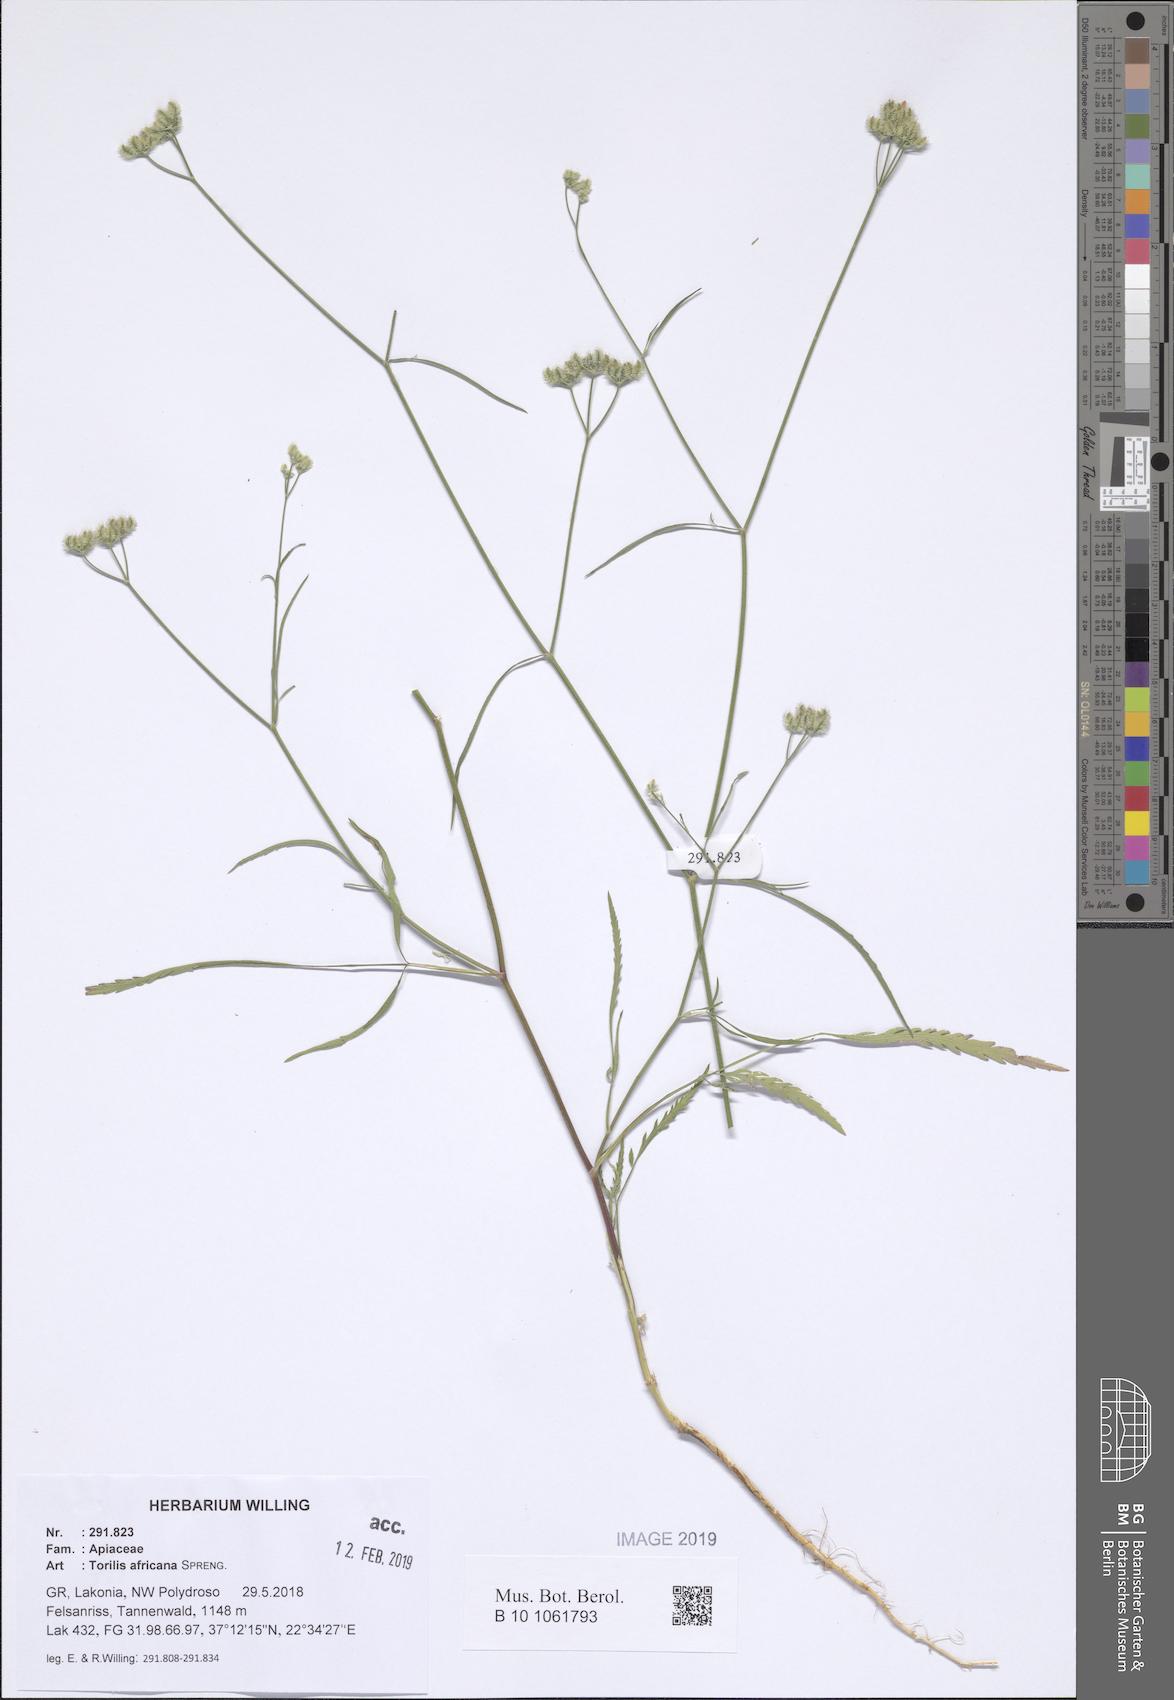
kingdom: Plantae
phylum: Tracheophyta
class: Magnoliopsida
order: Apiales
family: Apiaceae
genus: Torilis
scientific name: Torilis africana
